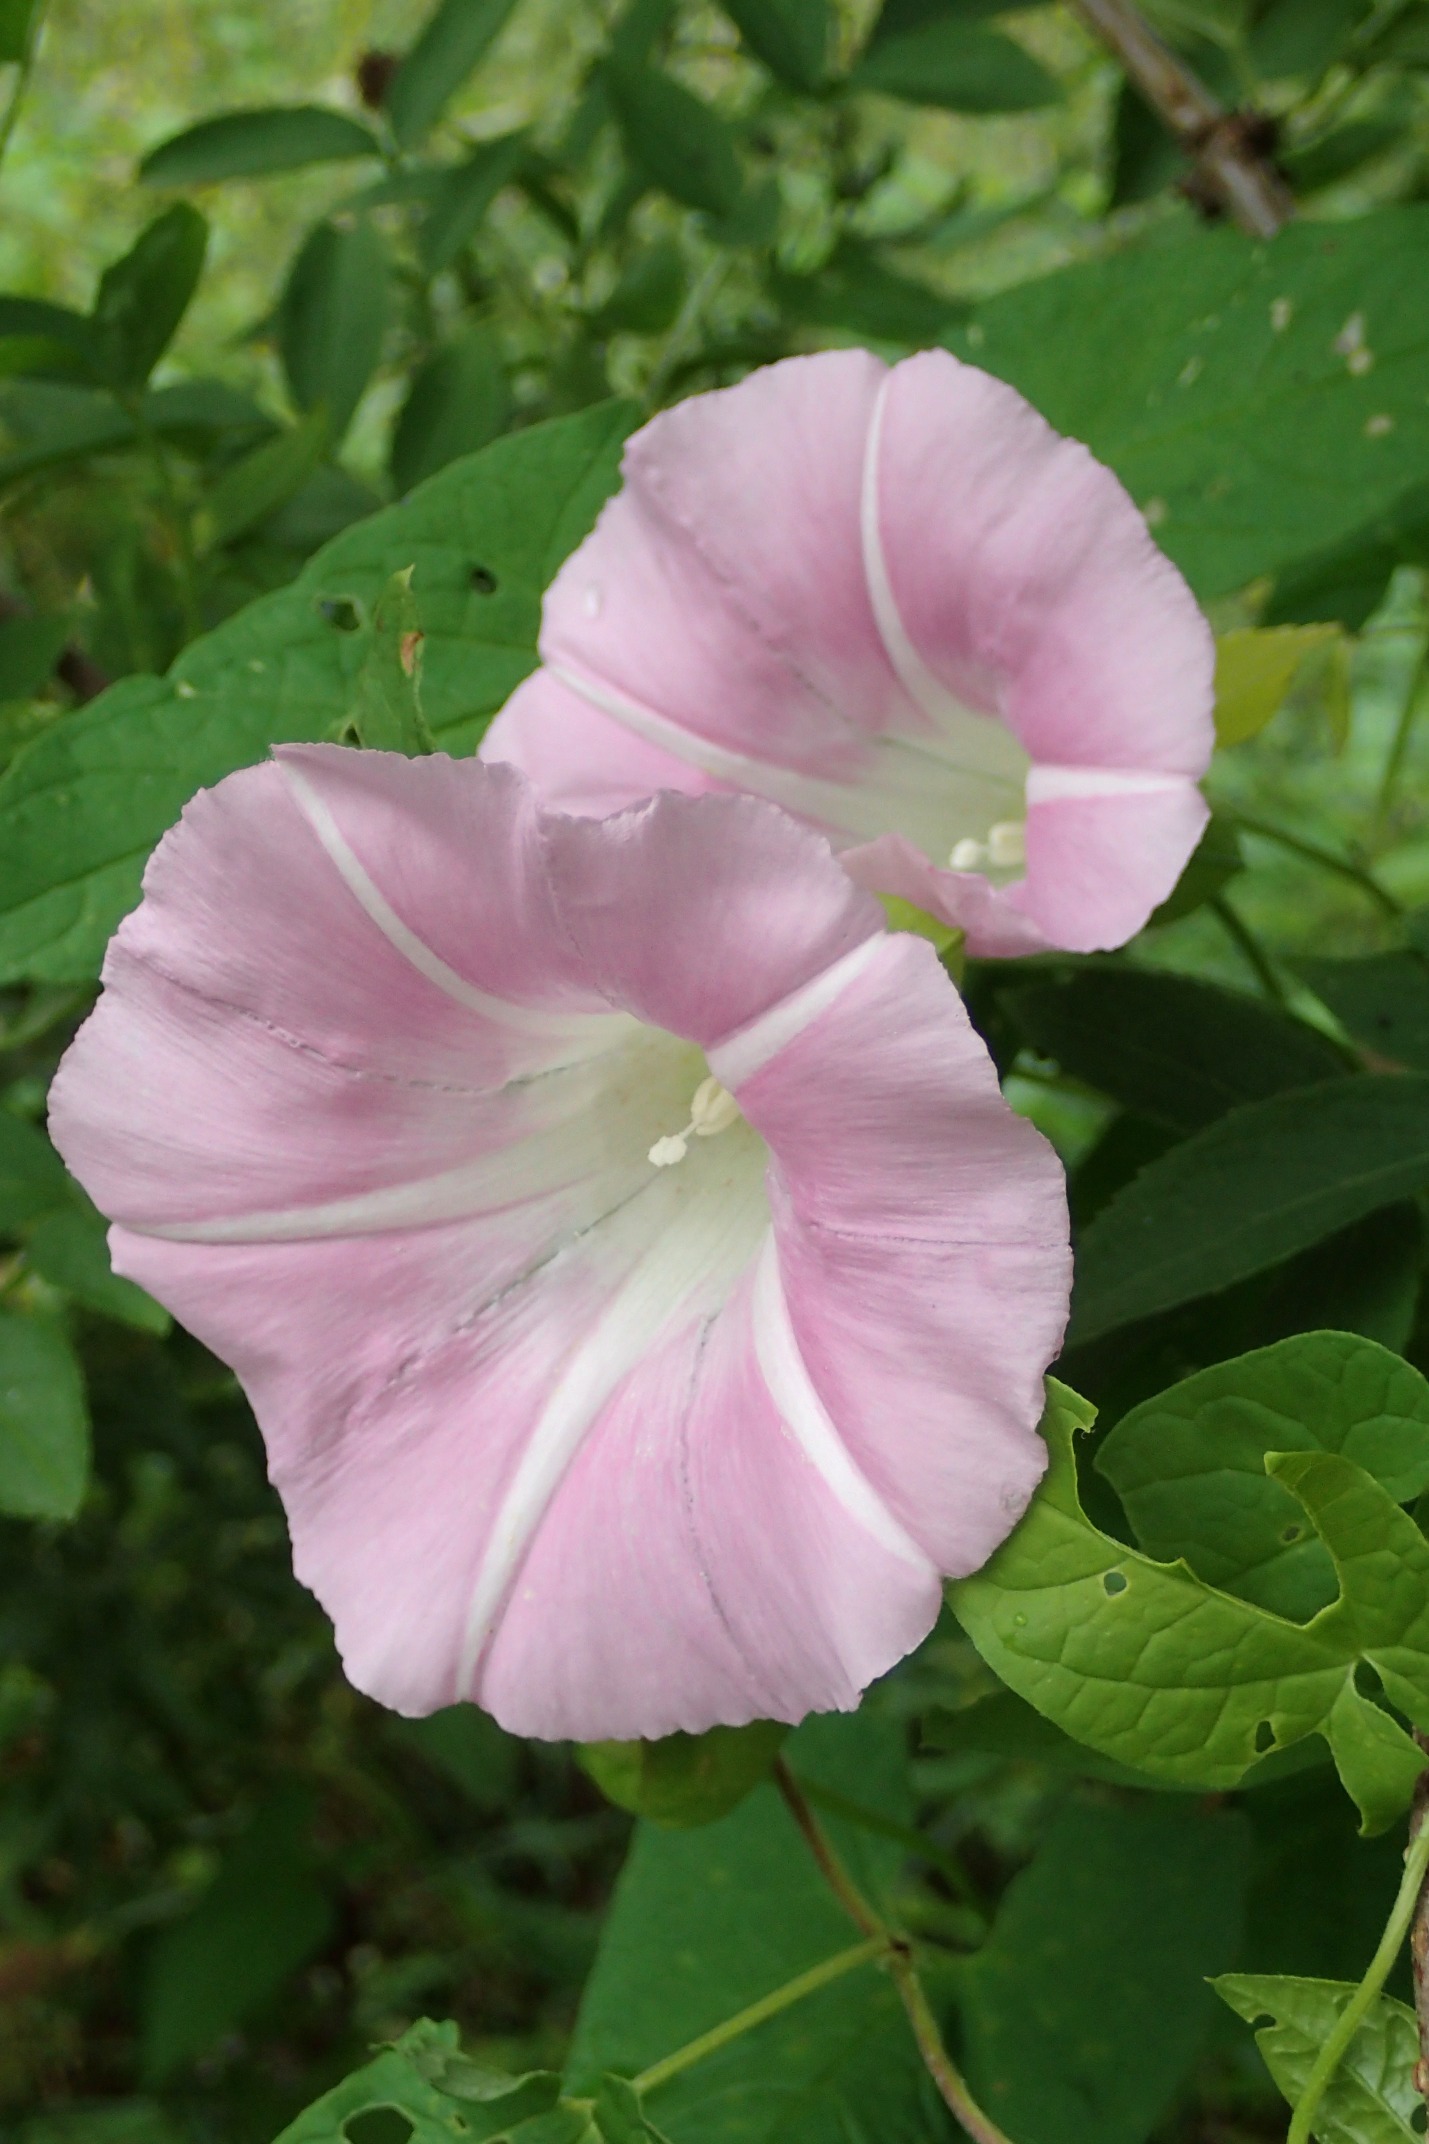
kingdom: Plantae
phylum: Tracheophyta
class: Magnoliopsida
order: Solanales
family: Convolvulaceae
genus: Calystegia
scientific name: Calystegia pulchra
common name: Have-snerle
